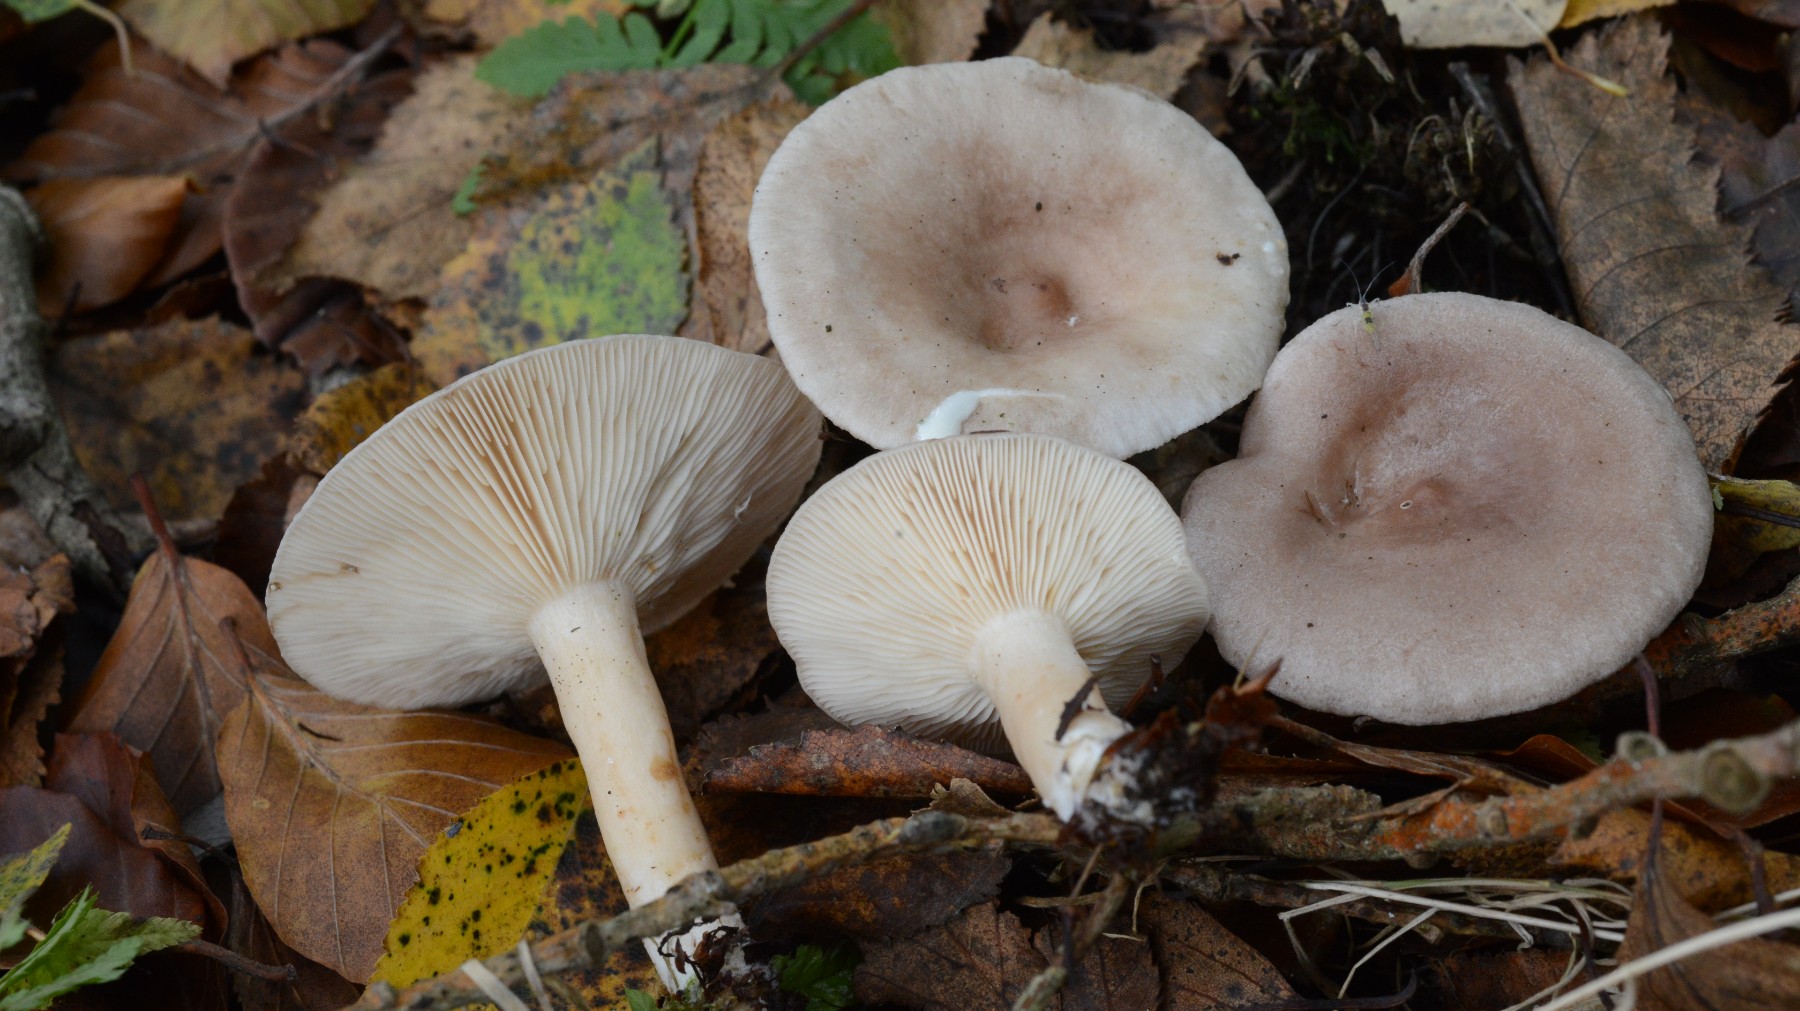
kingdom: Fungi
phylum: Basidiomycota
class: Agaricomycetes
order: Russulales
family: Russulaceae
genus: Lactarius
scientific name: Lactarius glyciosmus
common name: kokos-mælkehat
